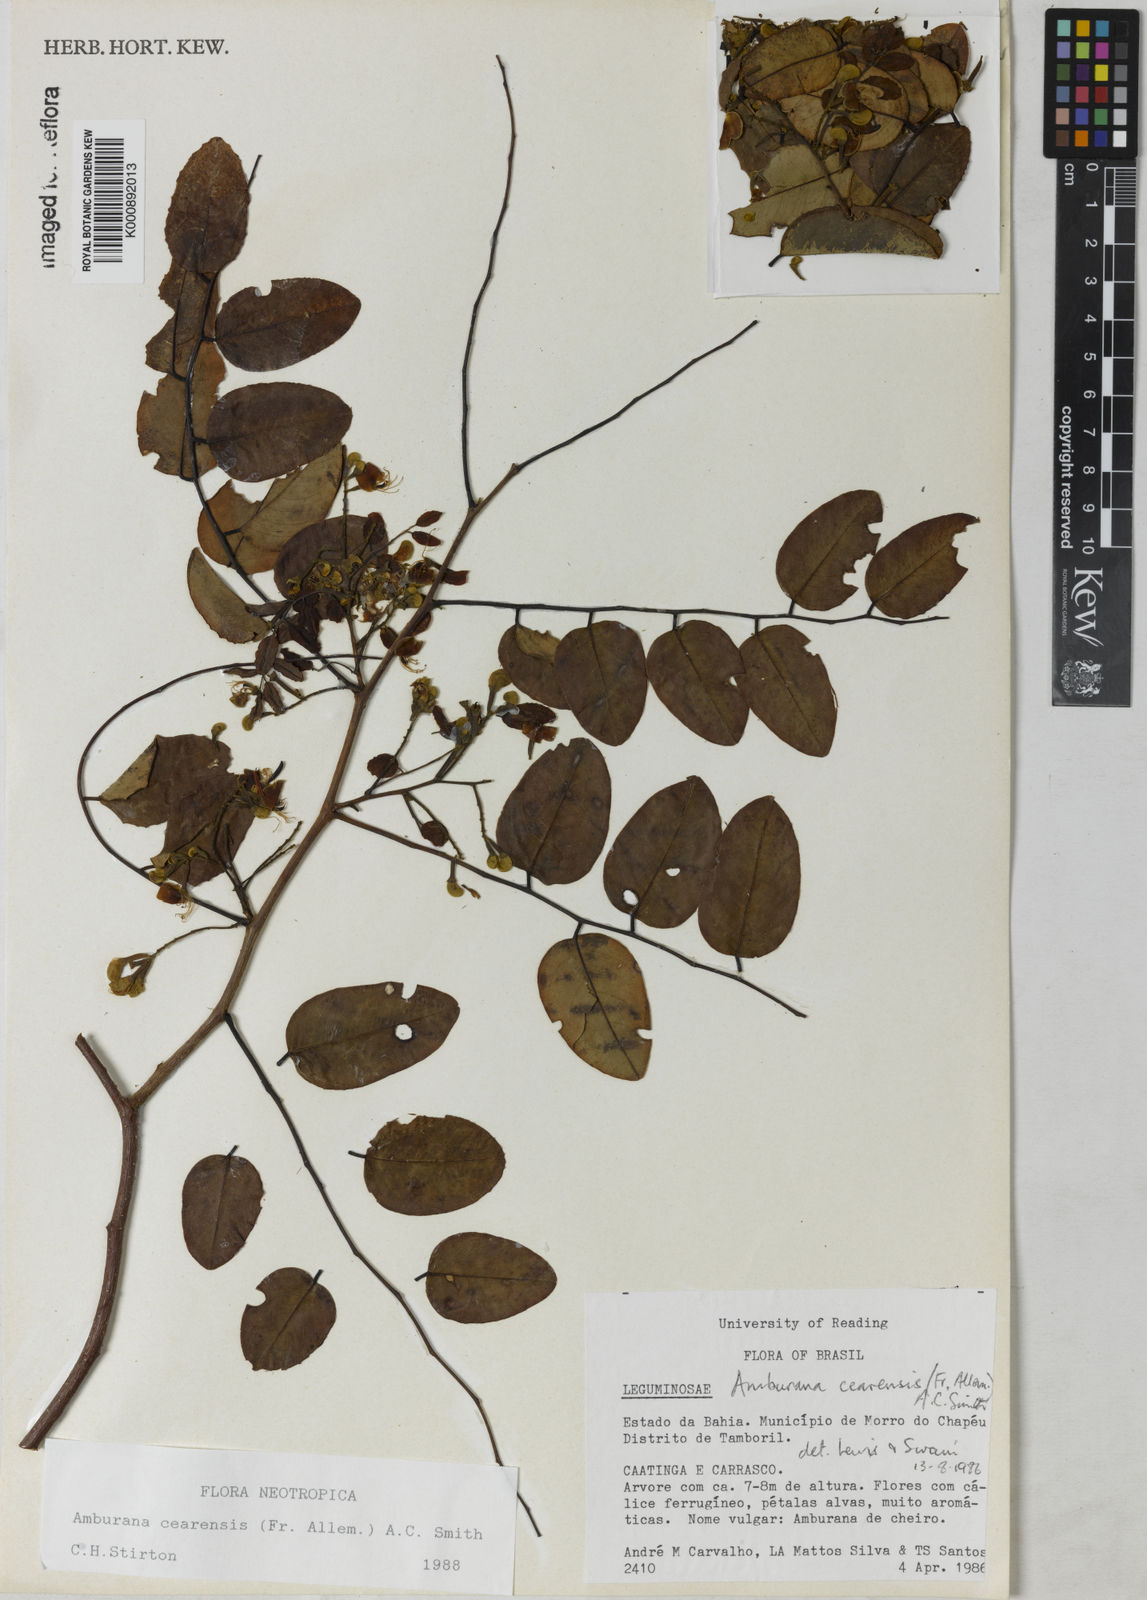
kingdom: Plantae
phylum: Tracheophyta
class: Magnoliopsida
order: Fabales
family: Fabaceae
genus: Amburana
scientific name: Amburana acreana
